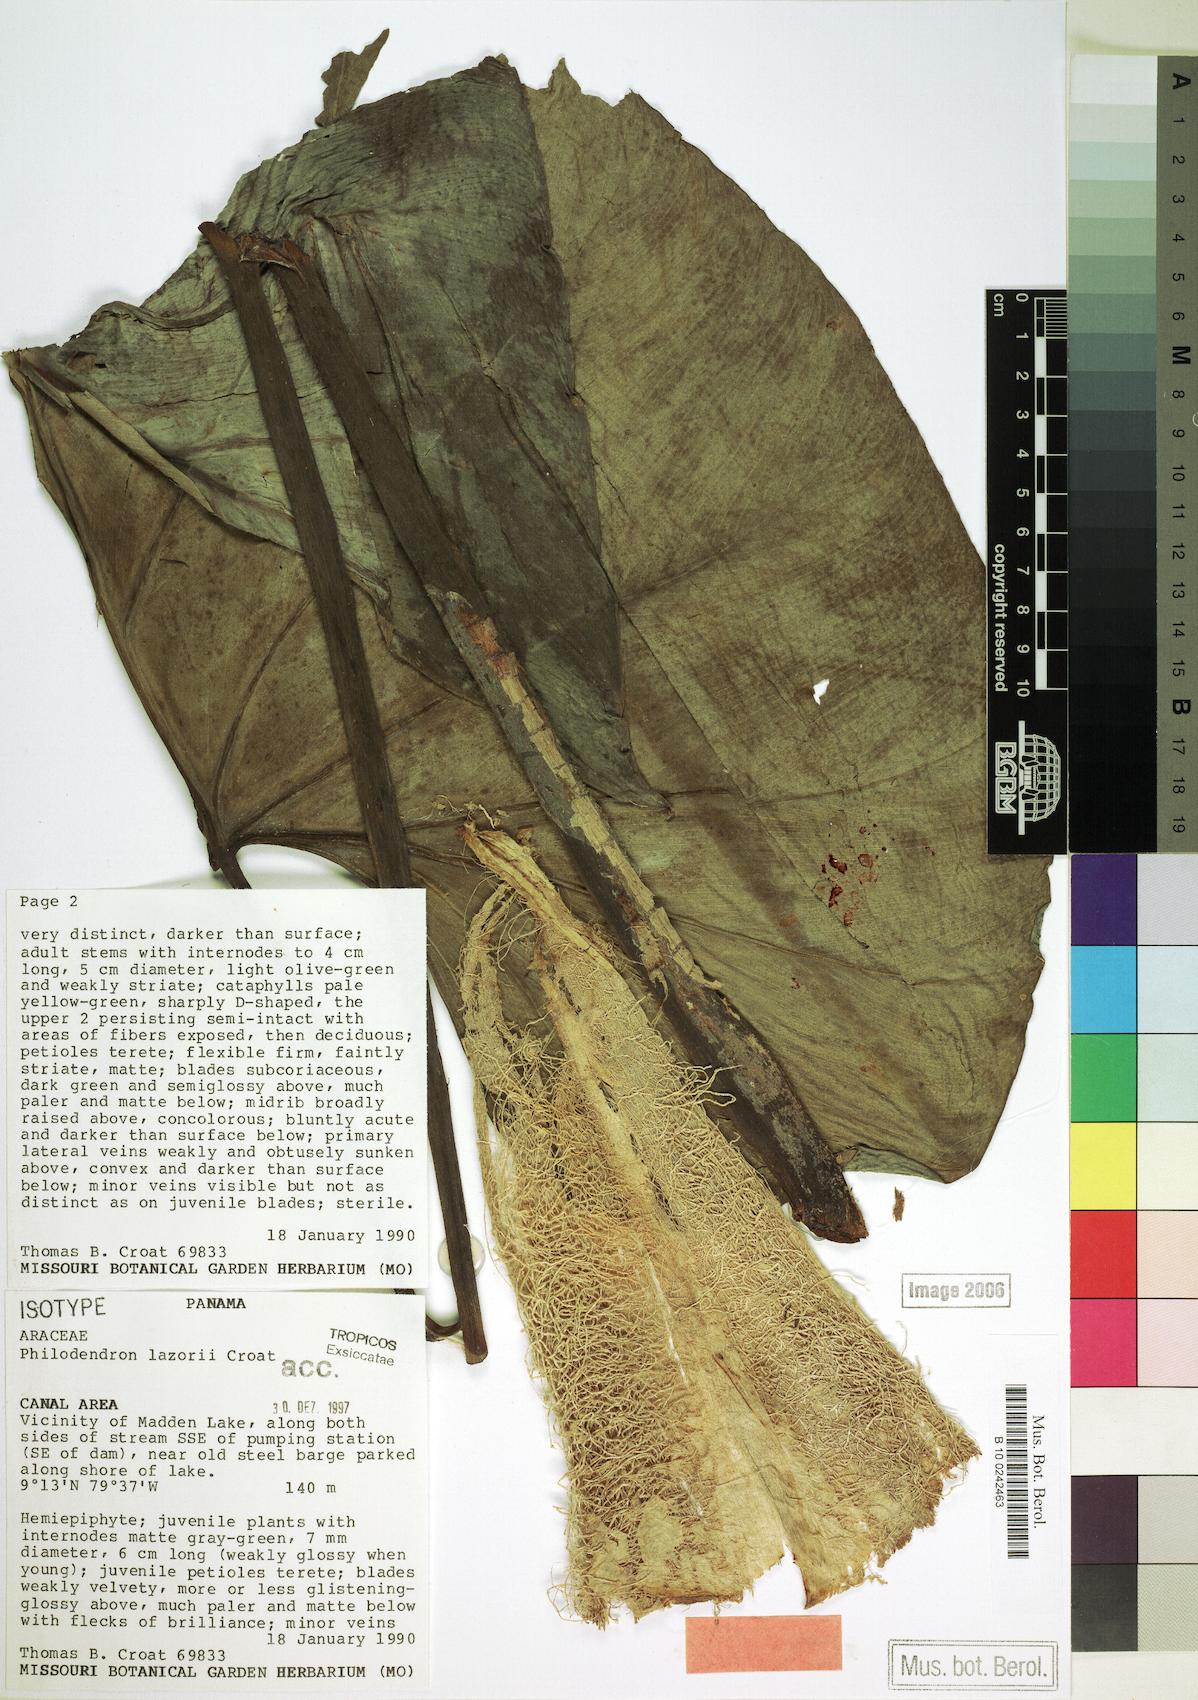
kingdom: Plantae
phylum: Tracheophyta
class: Liliopsida
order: Alismatales
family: Araceae
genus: Philodendron
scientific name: Philodendron lazorii
